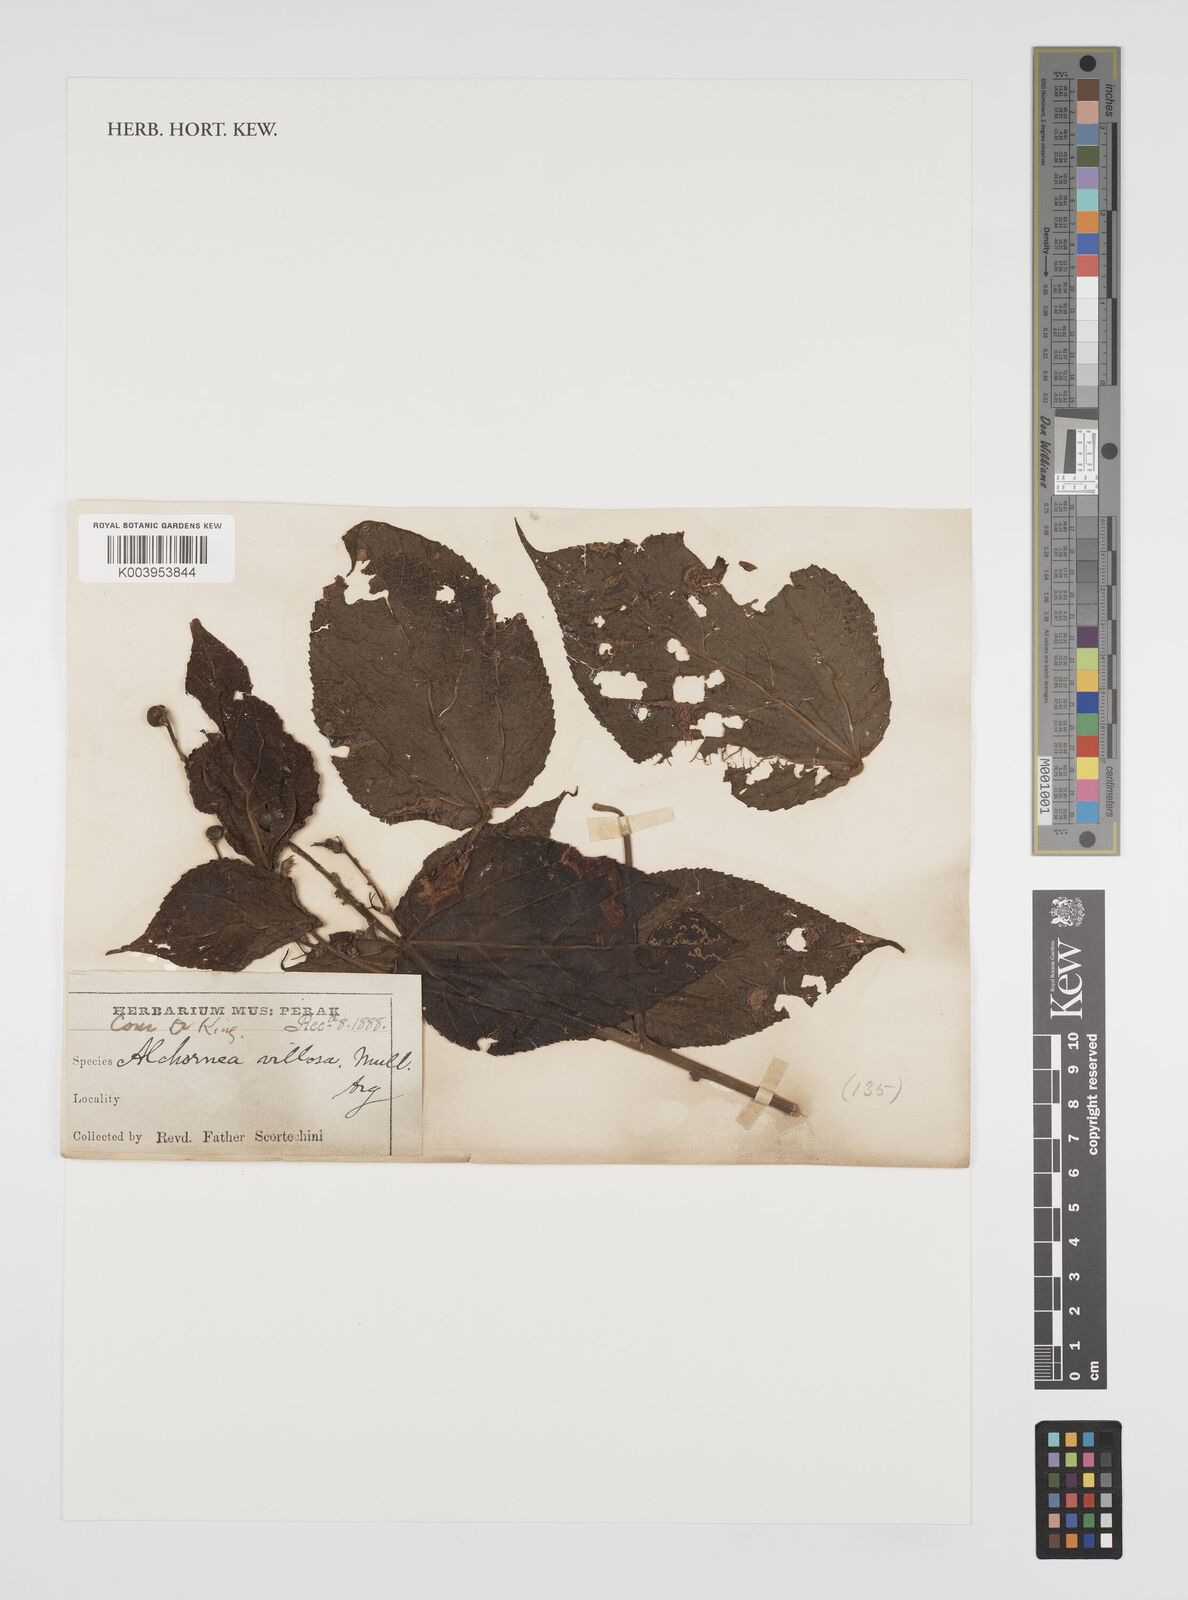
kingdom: Plantae
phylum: Tracheophyta
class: Magnoliopsida
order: Malpighiales
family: Euphorbiaceae
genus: Alchornea
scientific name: Alchornea tiliifolia
